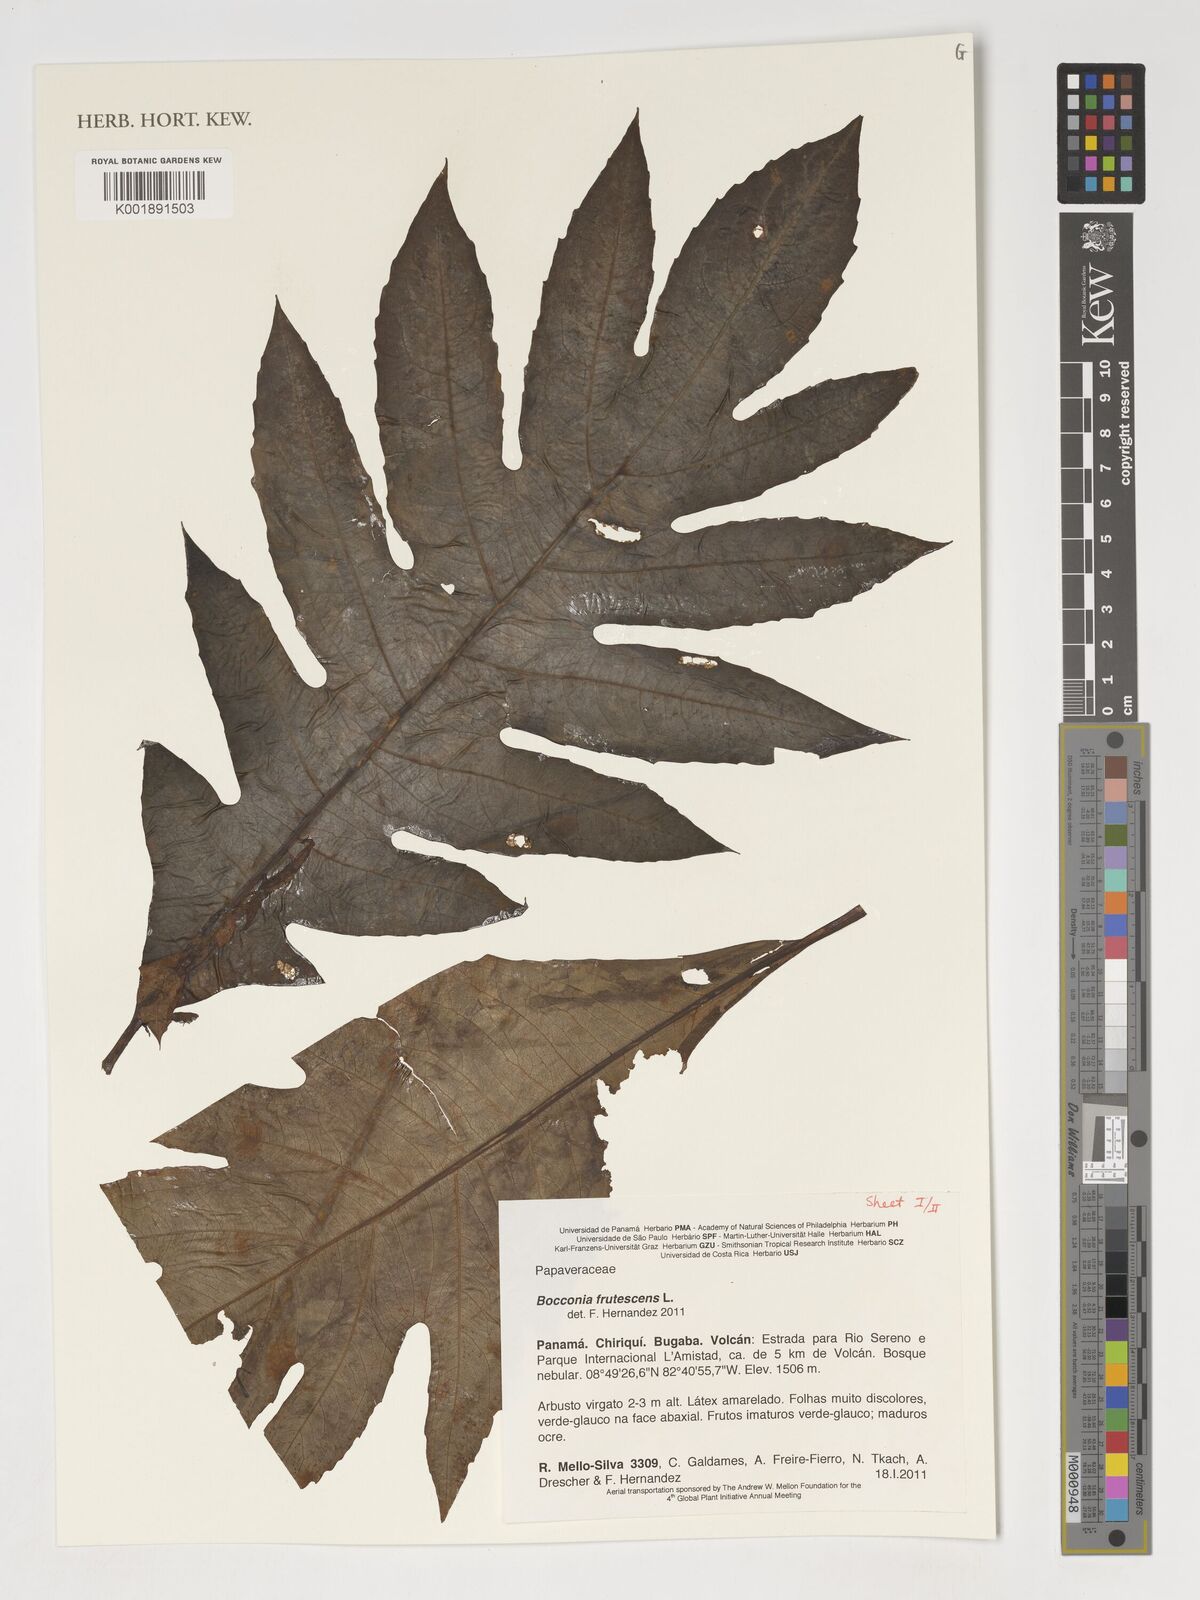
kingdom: Plantae
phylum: Tracheophyta
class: Magnoliopsida
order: Ranunculales
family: Papaveraceae
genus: Bocconia
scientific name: Bocconia frutescens
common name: Tree poppy
